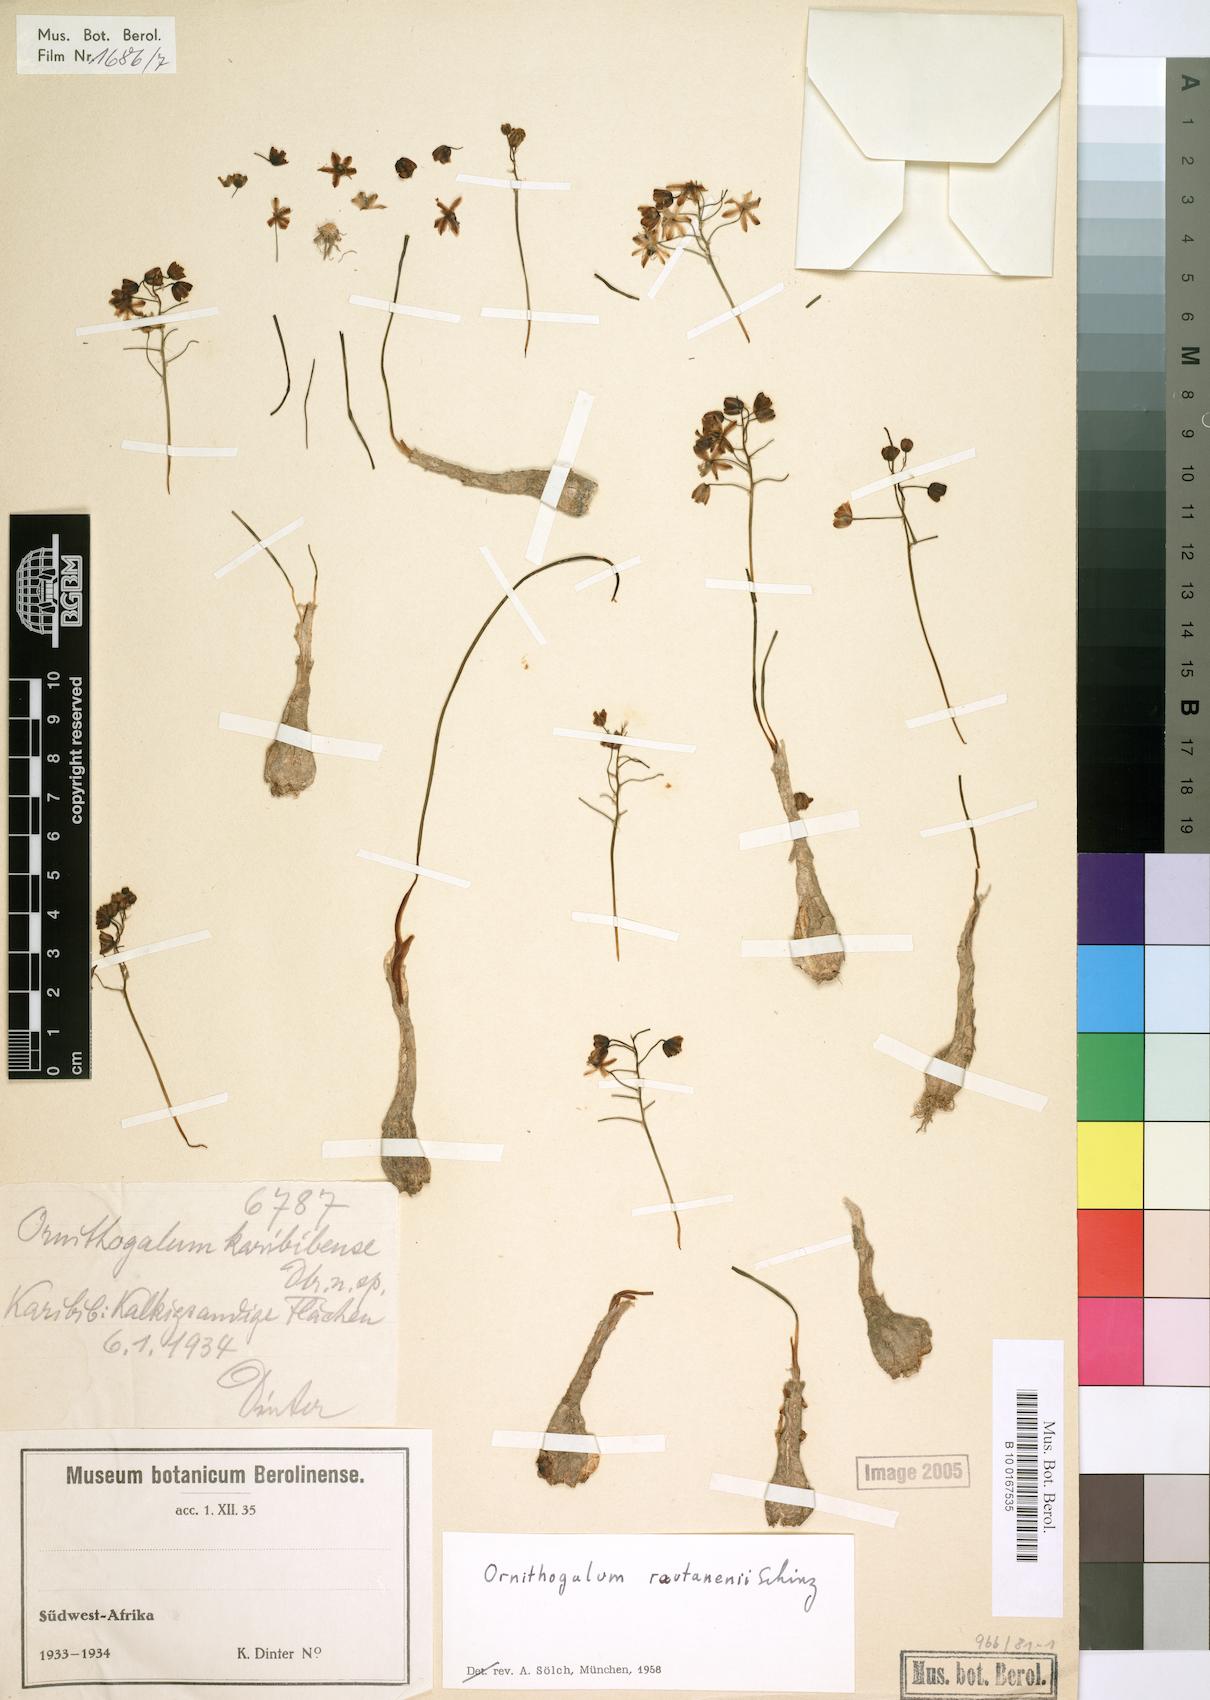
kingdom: Plantae
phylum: Tracheophyta
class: Liliopsida
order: Asparagales
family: Asparagaceae
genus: Albuca
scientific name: Albuca rautanenii
